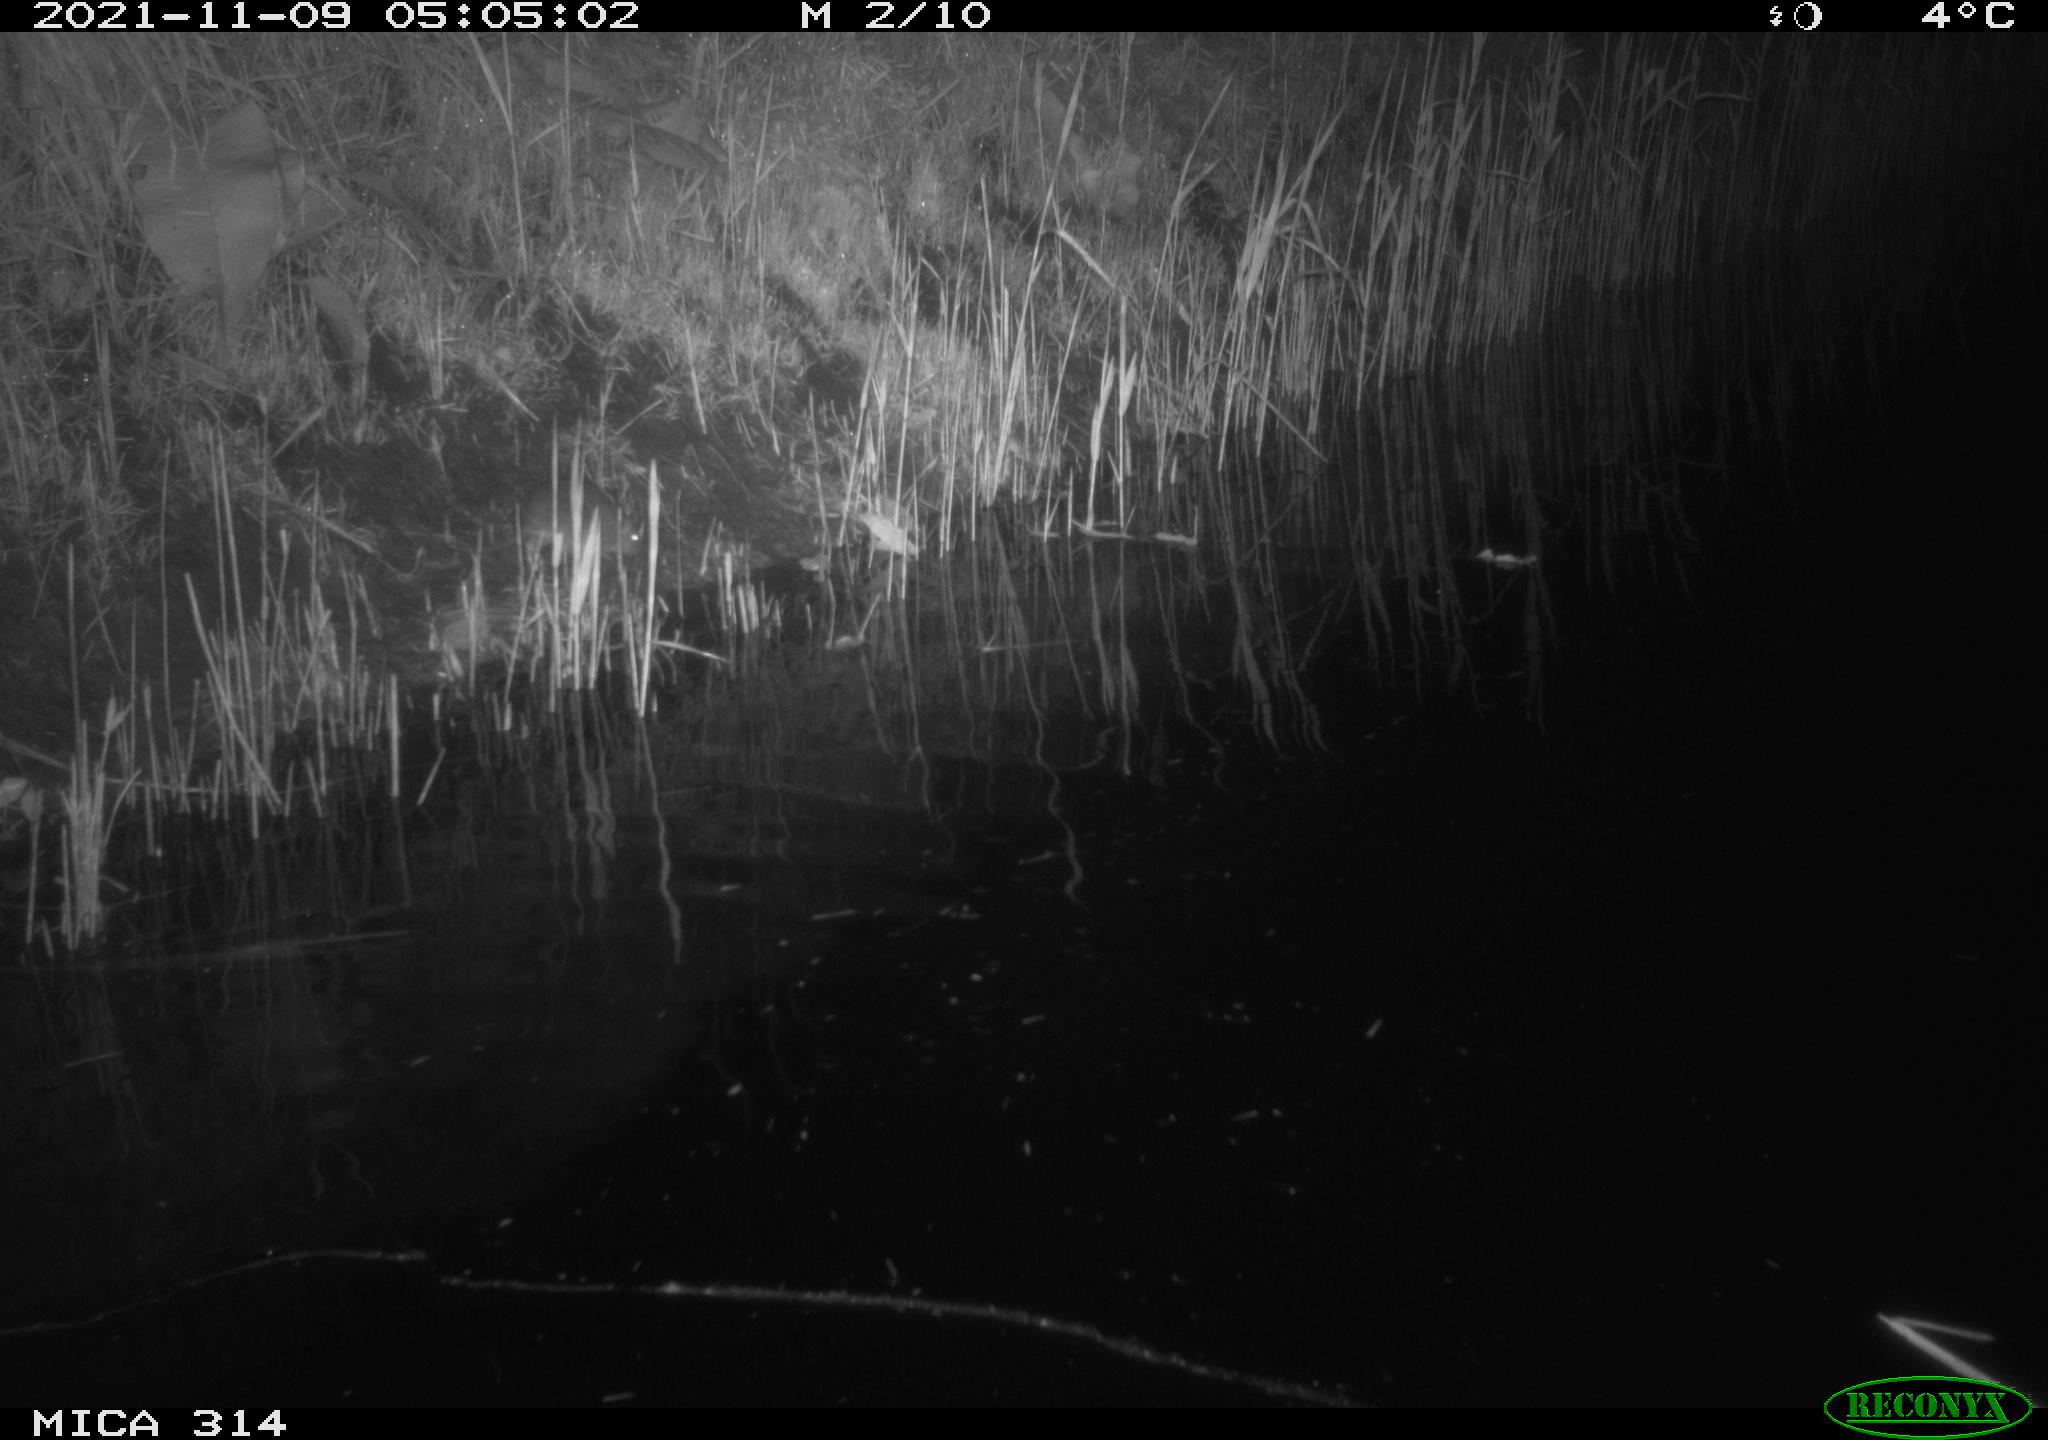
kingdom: Animalia
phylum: Chordata
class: Mammalia
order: Rodentia
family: Muridae
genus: Rattus
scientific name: Rattus norvegicus
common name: Brown rat
